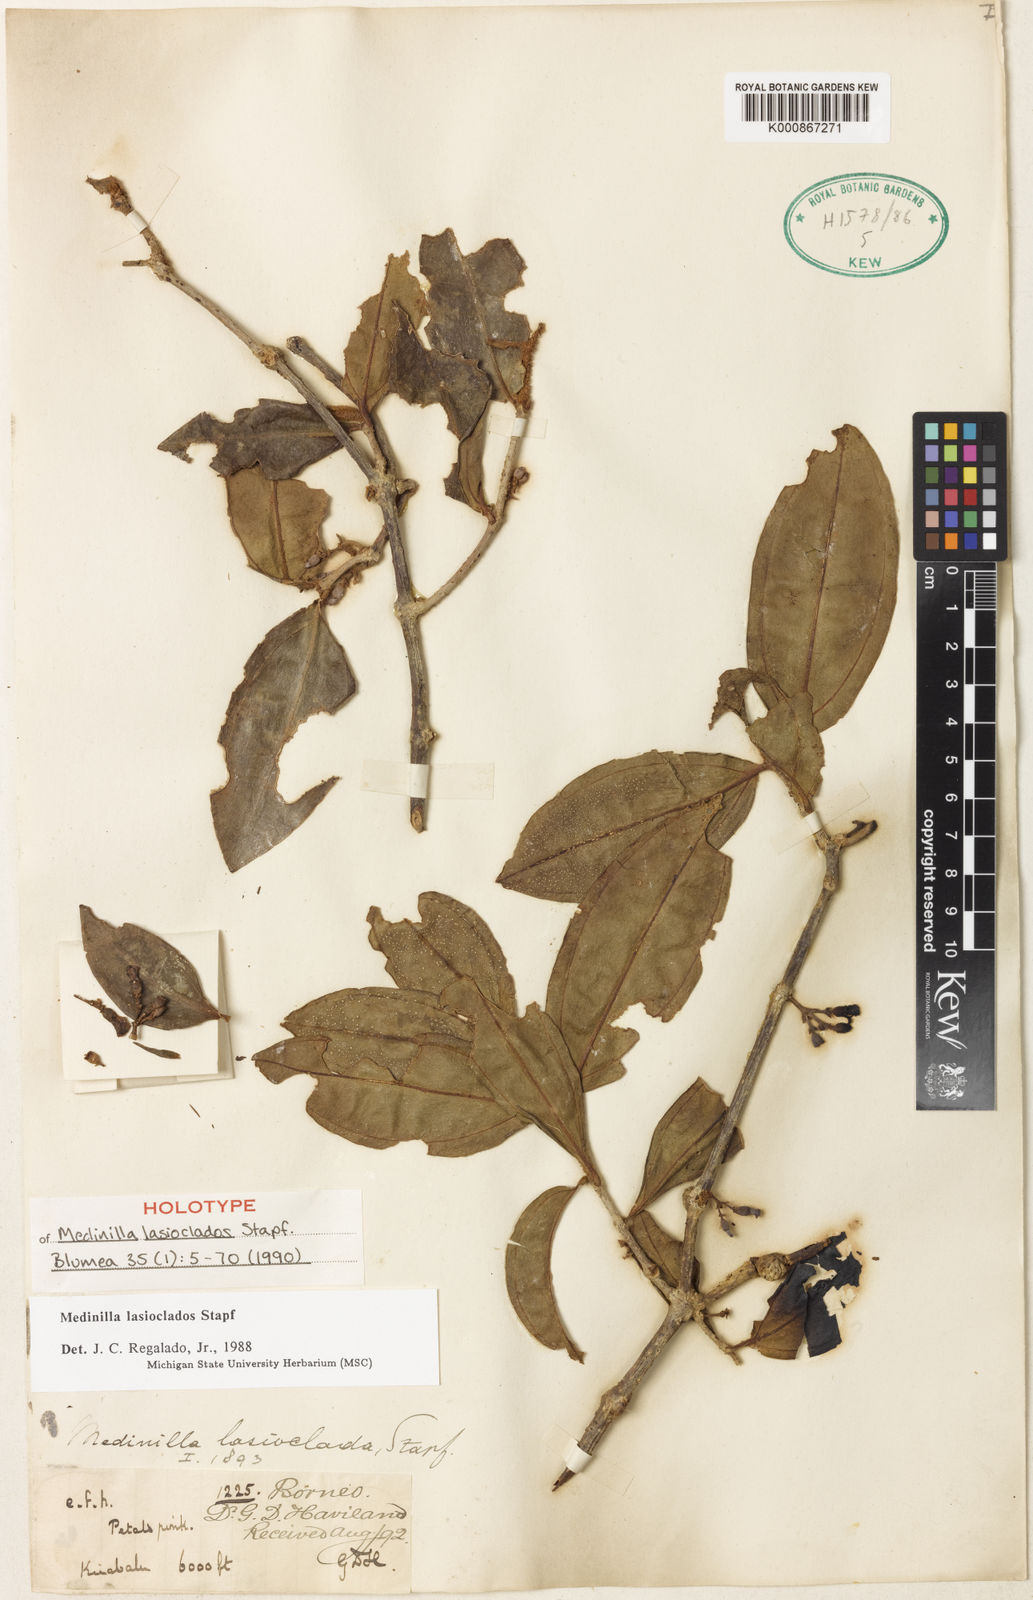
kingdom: Plantae
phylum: Tracheophyta
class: Magnoliopsida
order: Myrtales
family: Melastomataceae
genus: Medinilla
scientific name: Medinilla lasioclados
